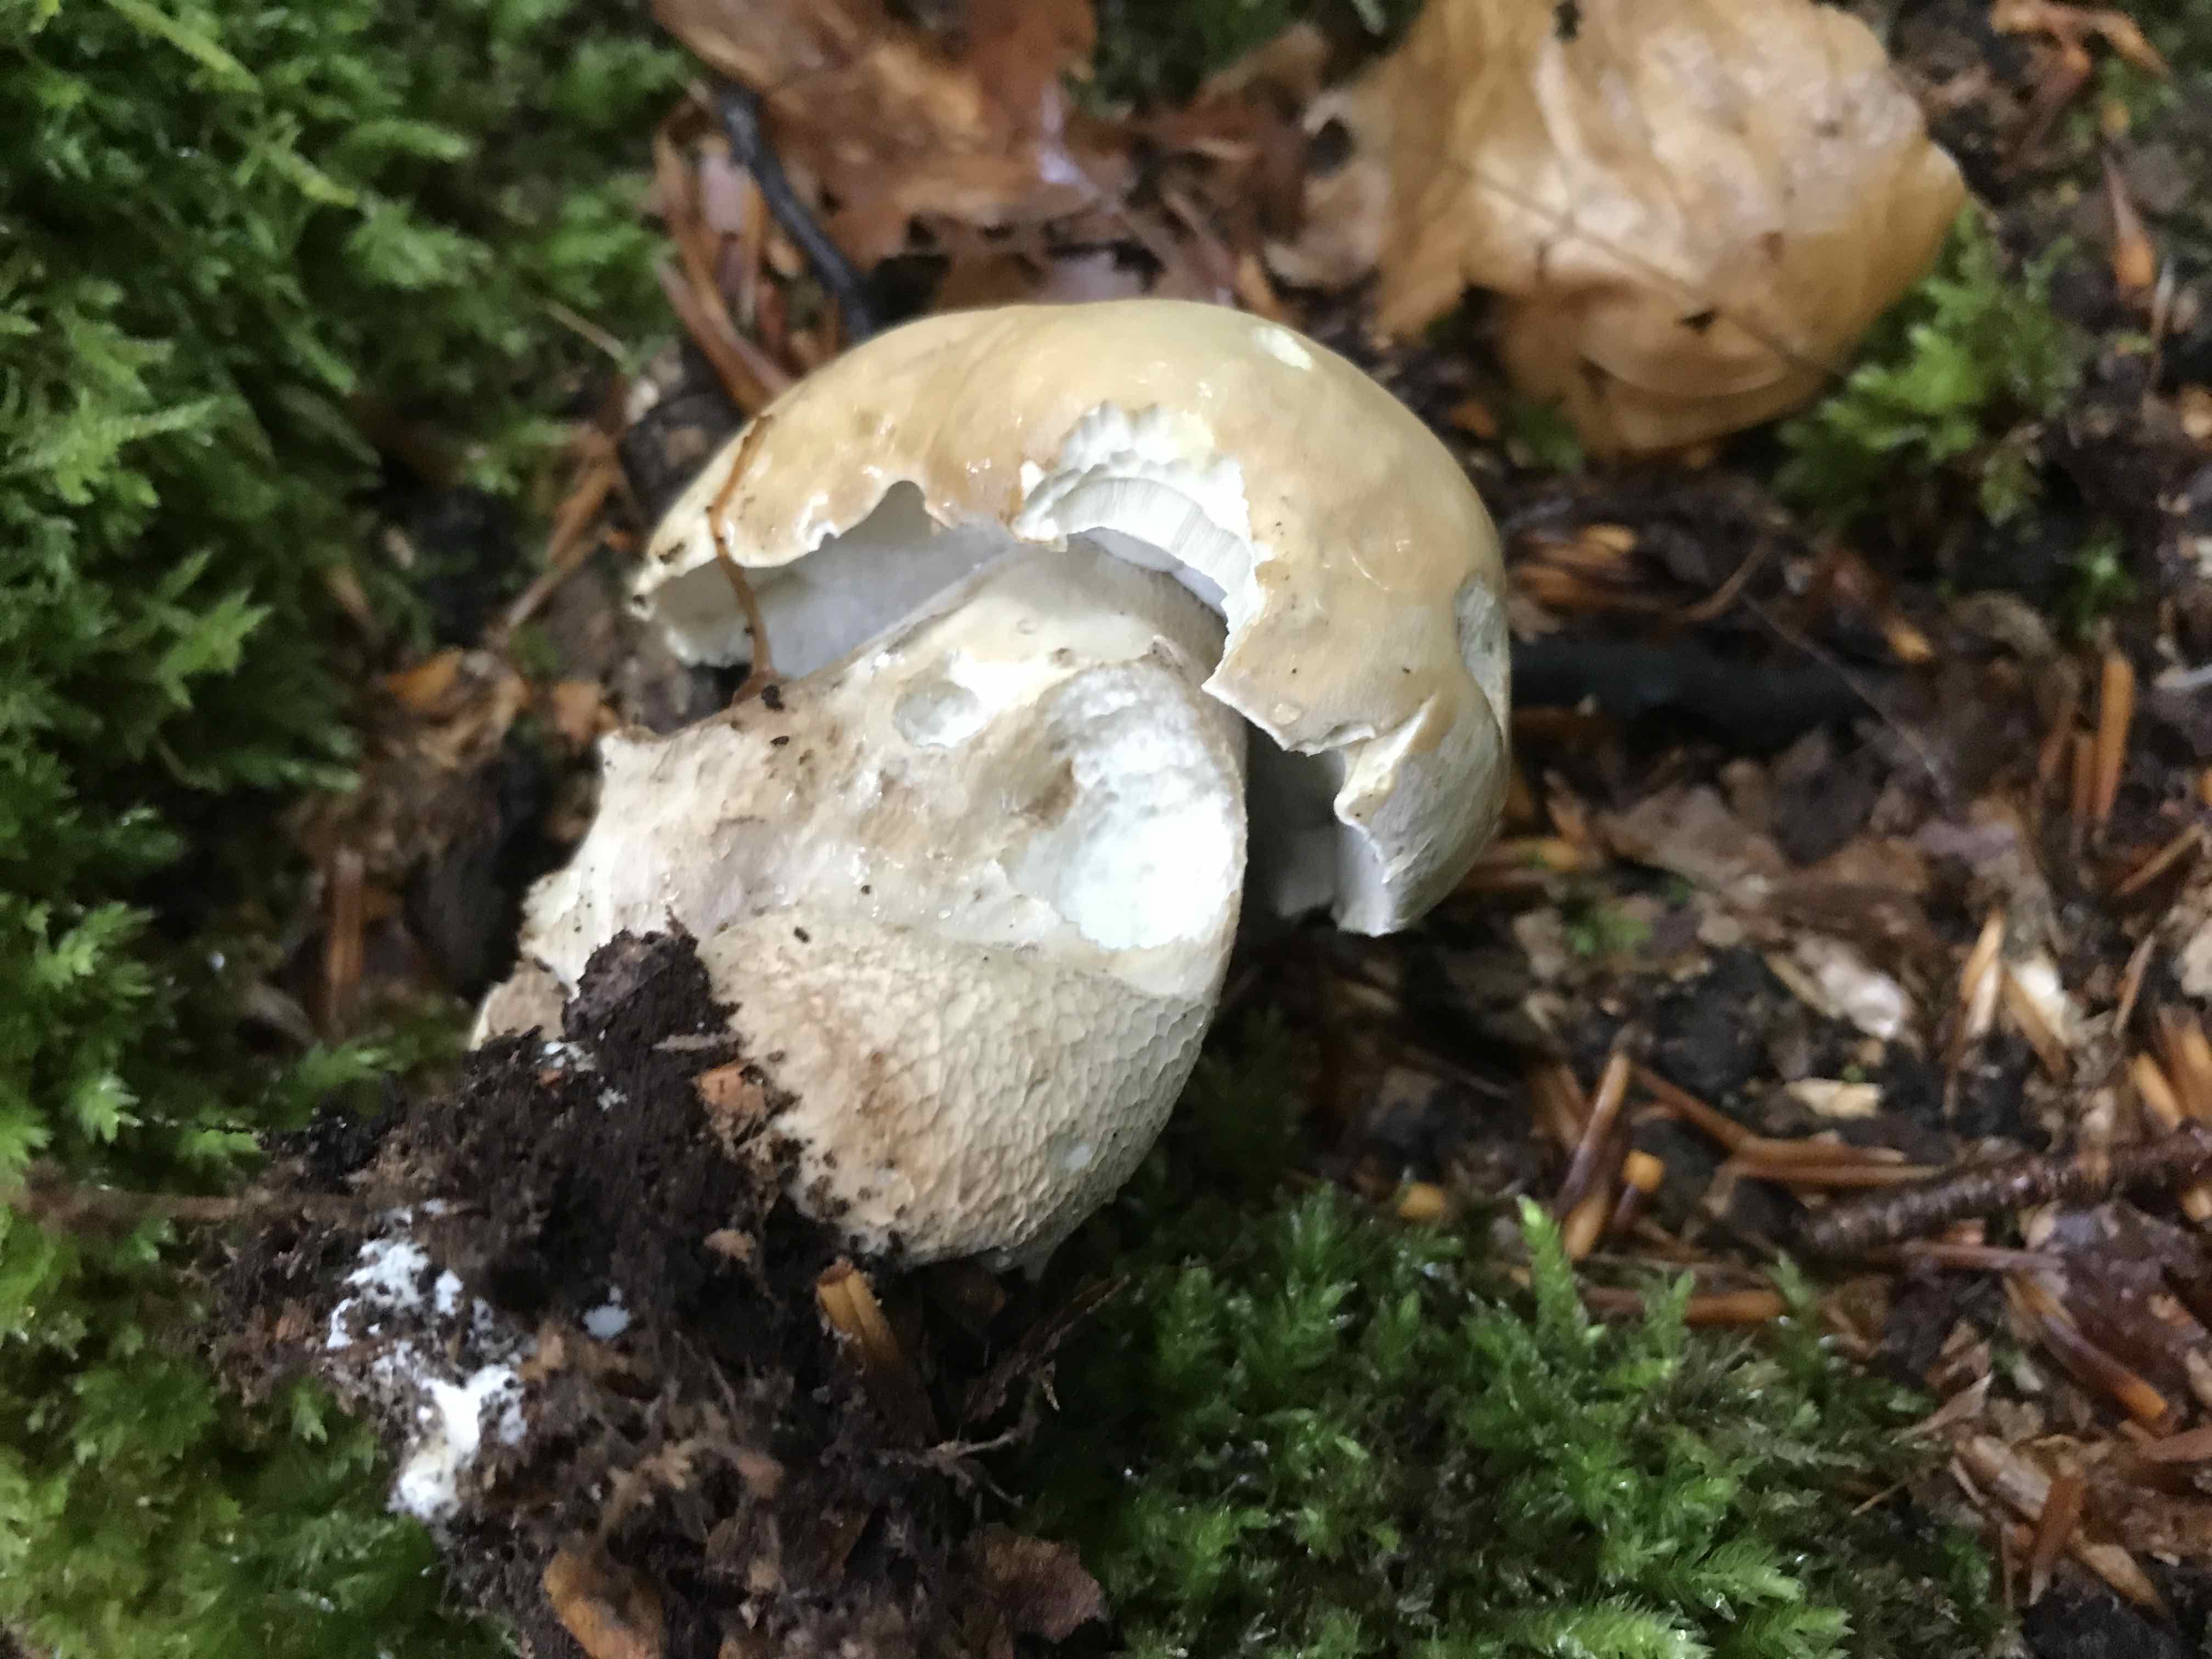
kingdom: Fungi
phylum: Basidiomycota
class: Agaricomycetes
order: Boletales
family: Boletaceae
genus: Boletus
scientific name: Boletus reticulatus
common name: sommer-rørhat
